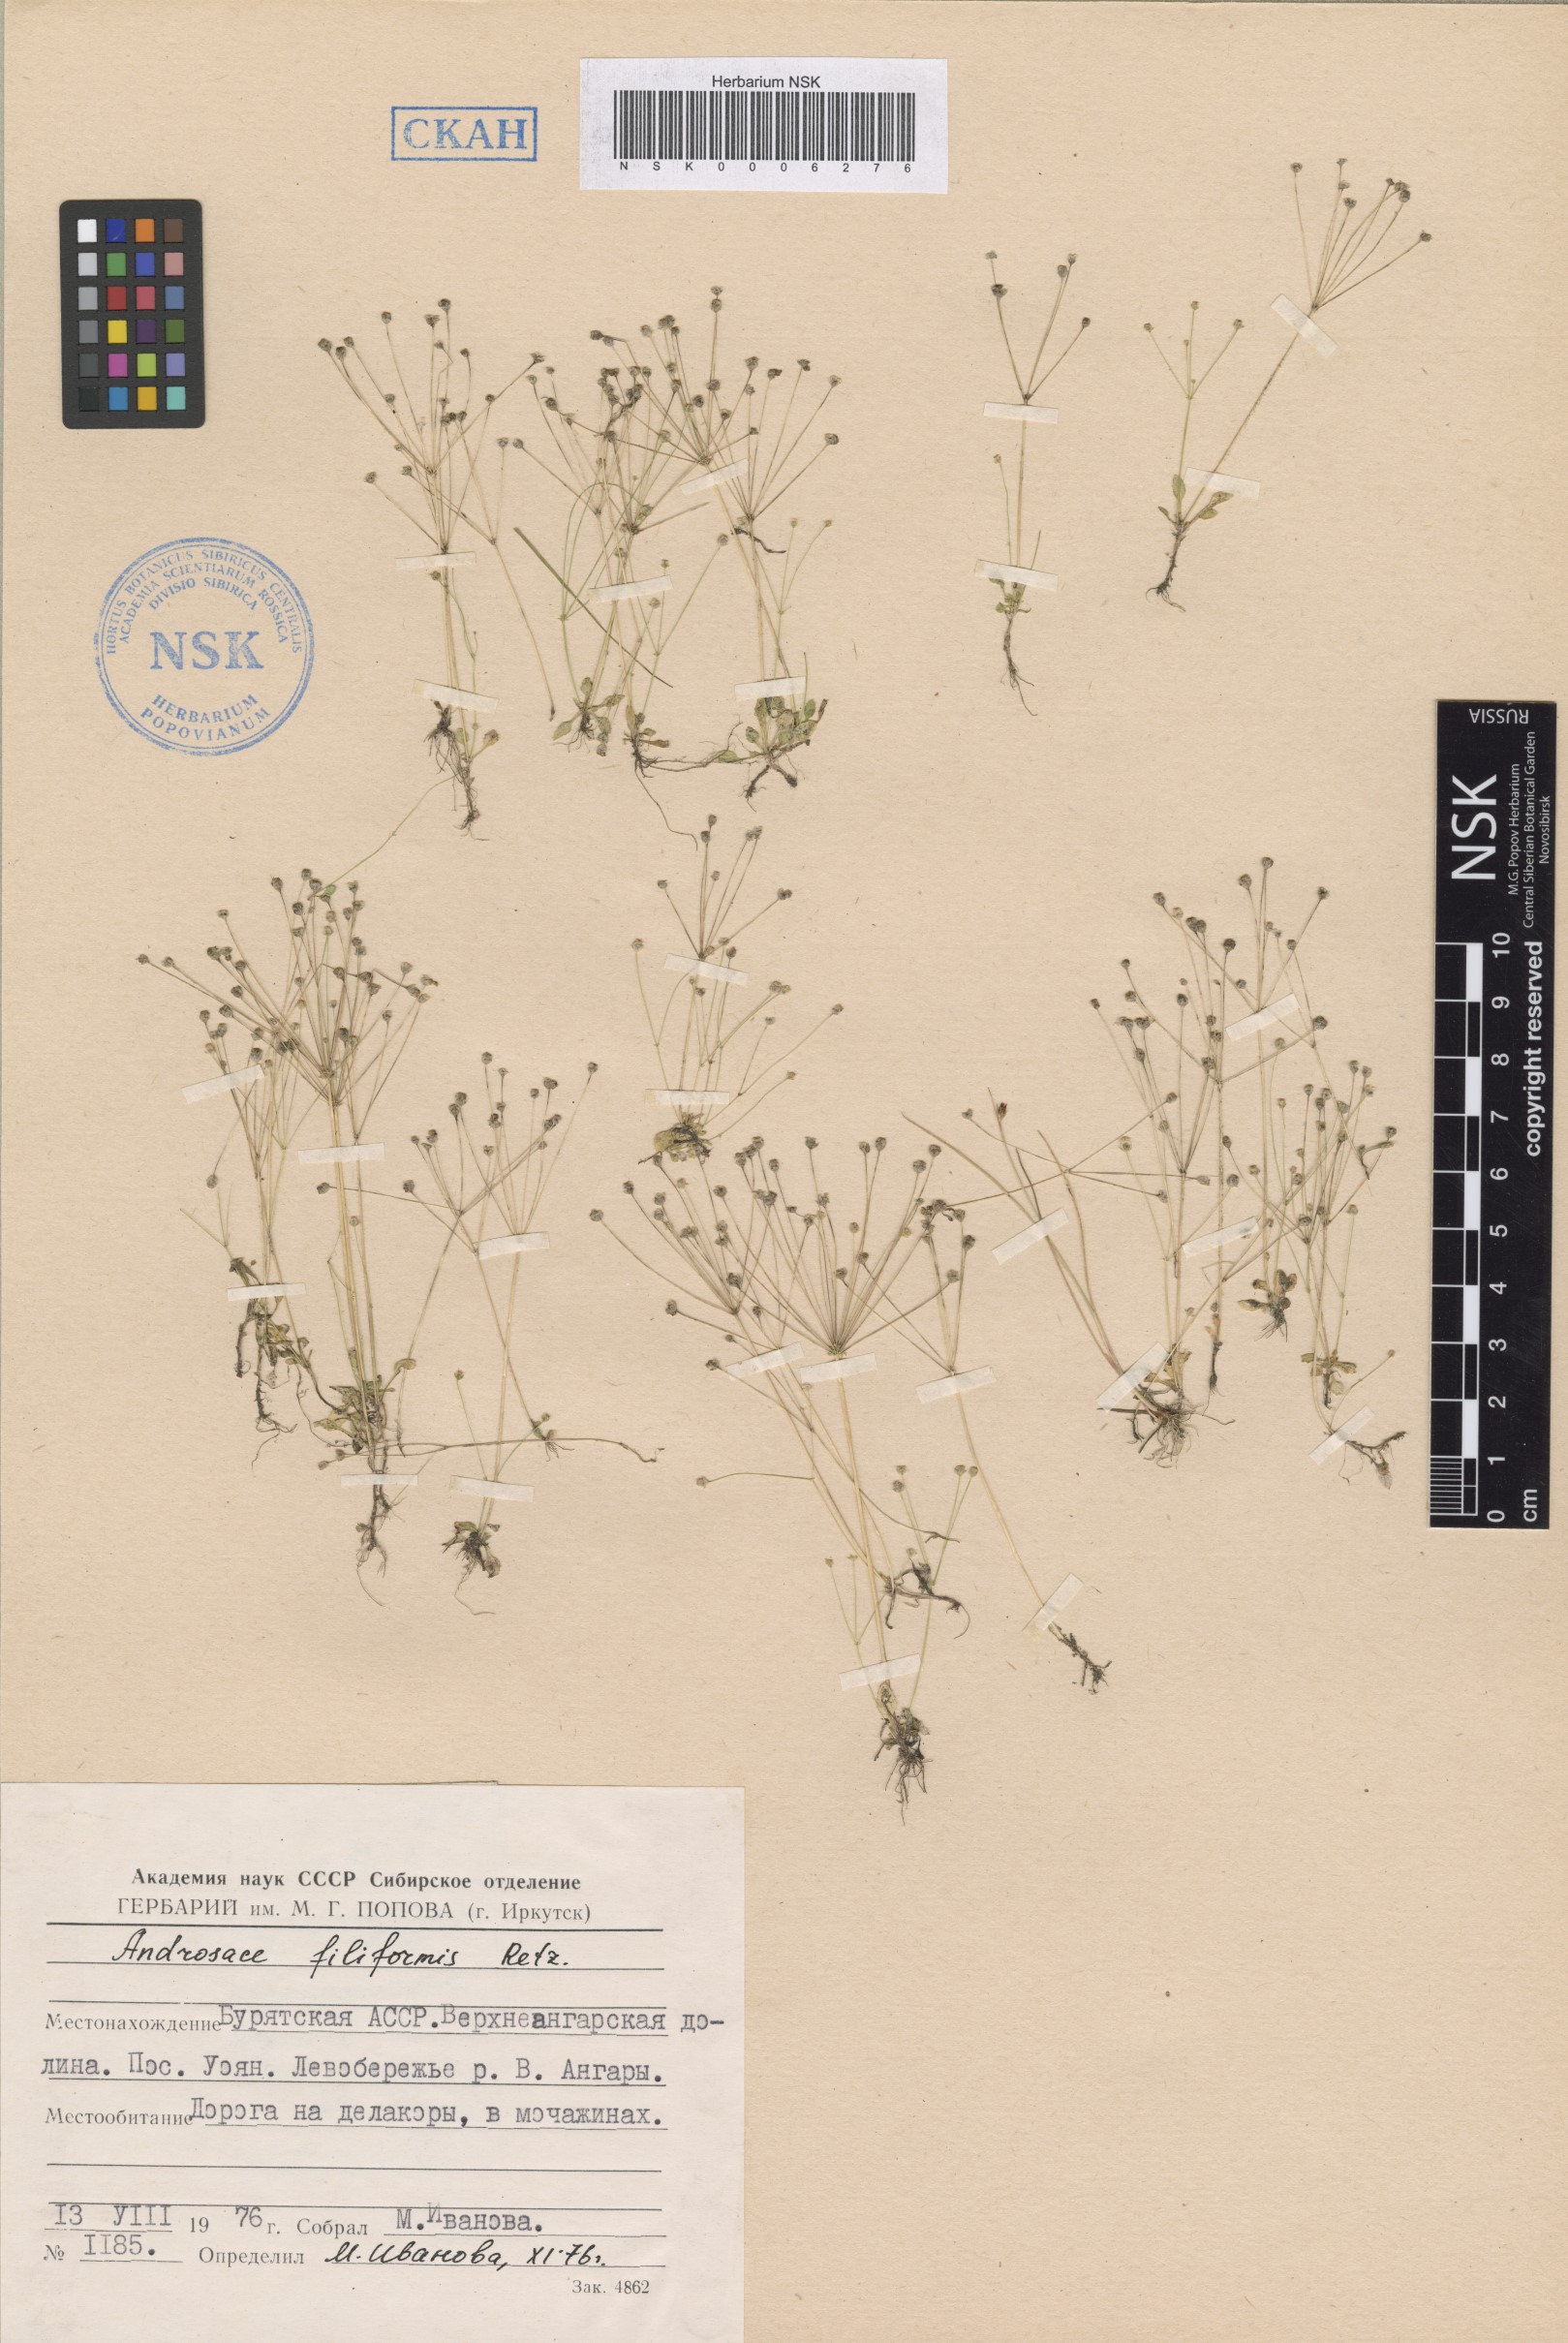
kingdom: Plantae
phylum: Tracheophyta
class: Magnoliopsida
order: Ericales
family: Primulaceae
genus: Androsace
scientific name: Androsace filiformis
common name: Filiform rock jasmine
